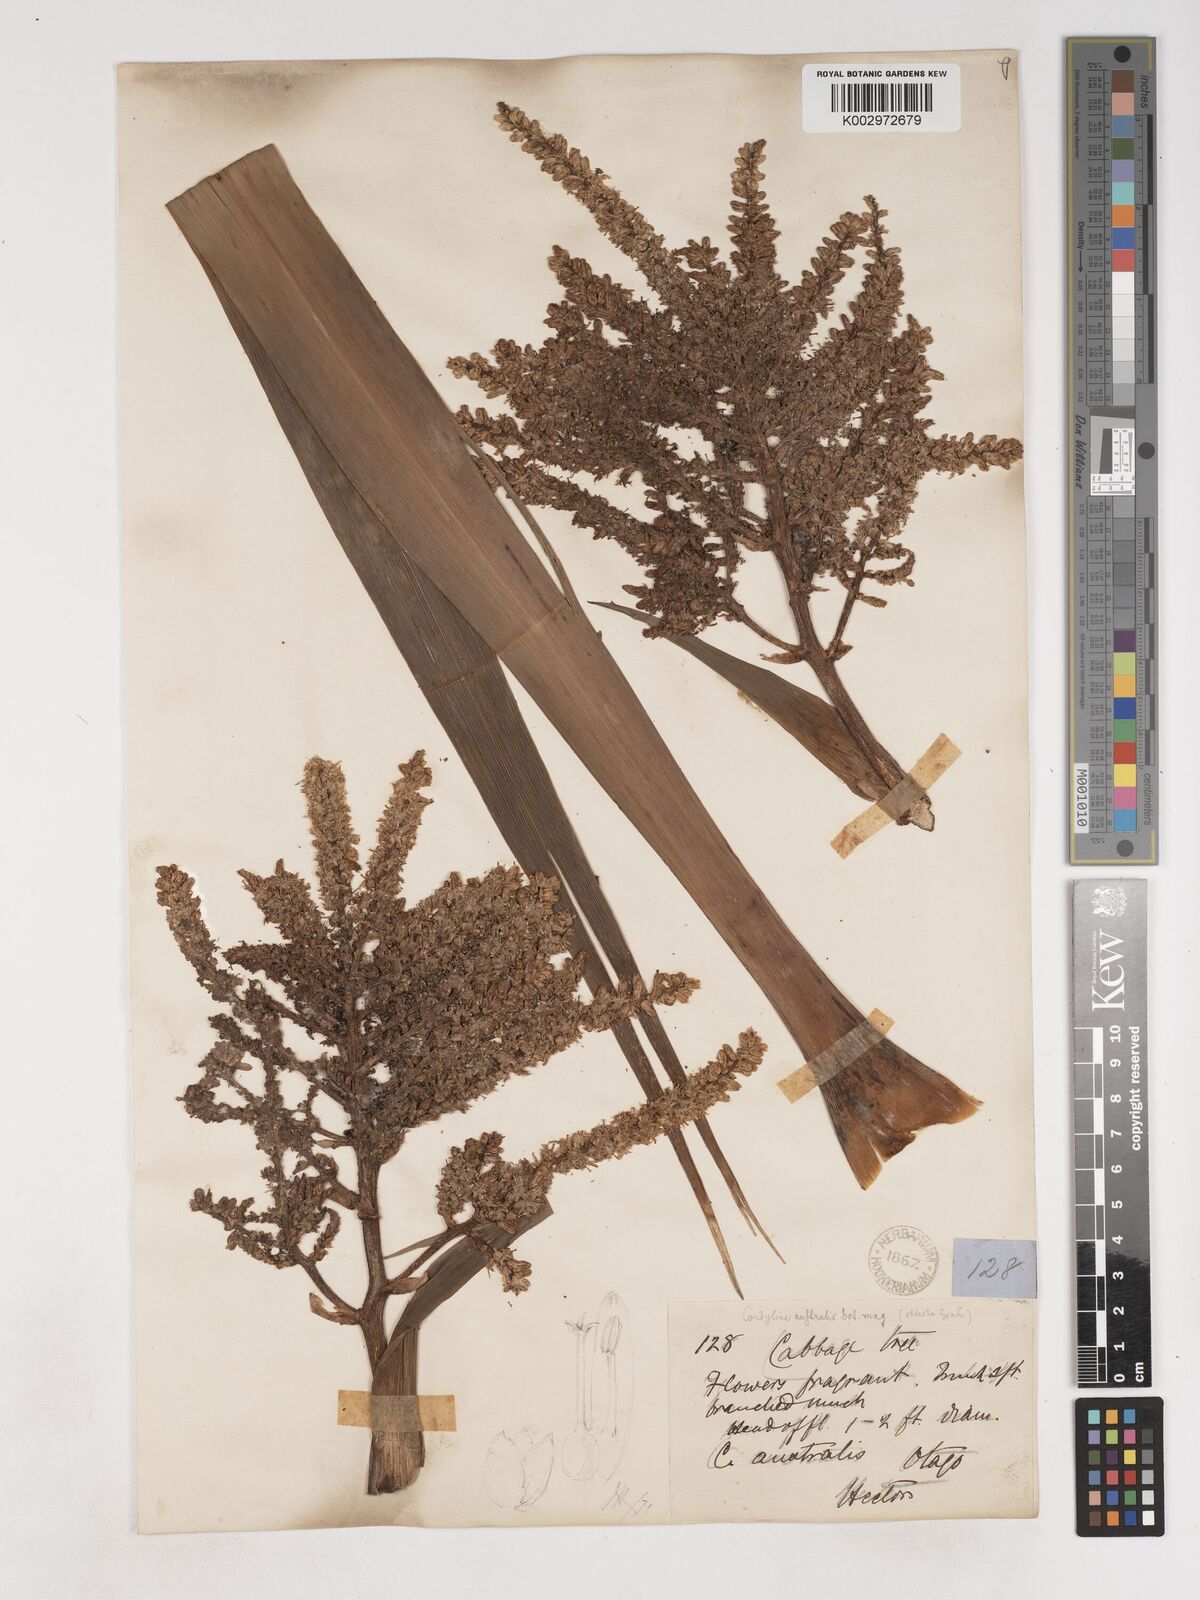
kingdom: Plantae
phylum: Tracheophyta
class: Liliopsida
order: Asparagales
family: Asparagaceae
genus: Cordyline
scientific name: Cordyline australis
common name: Cabbage-palm
